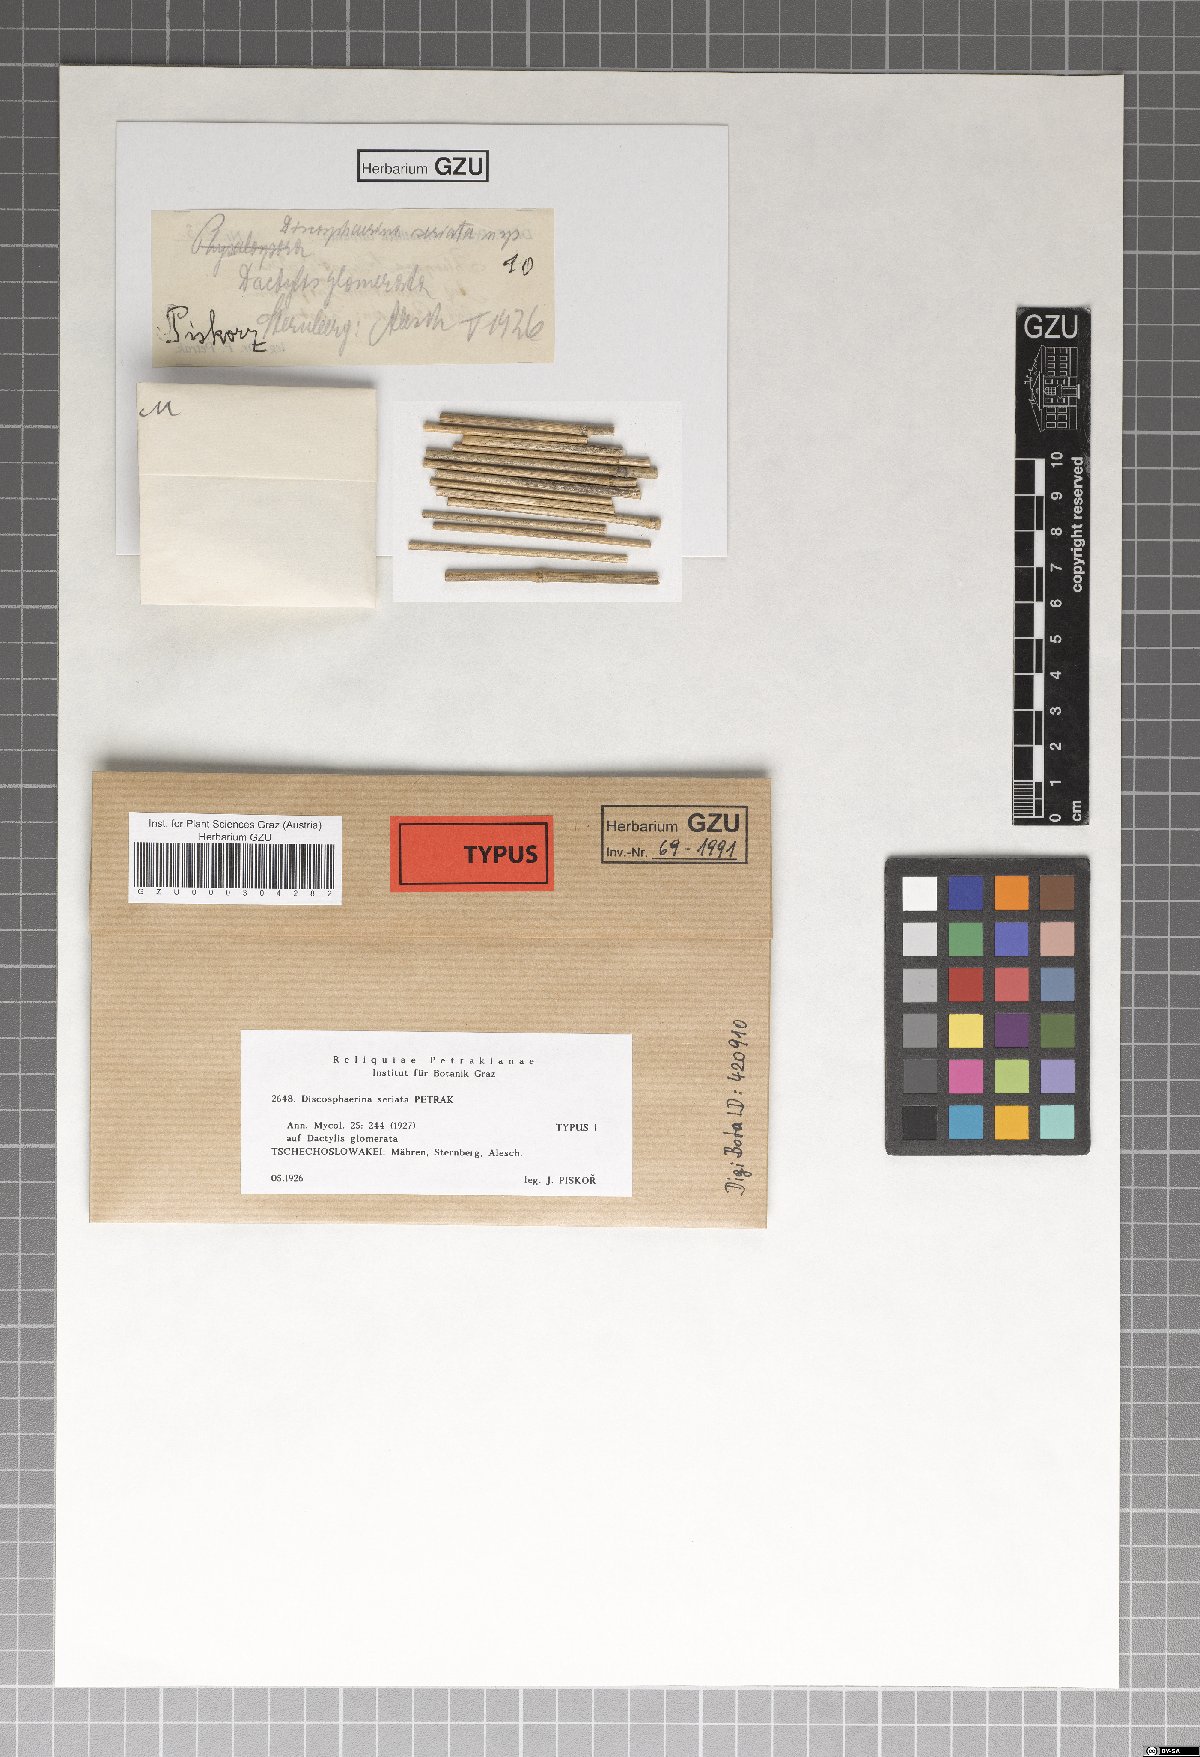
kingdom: Fungi
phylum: Ascomycota
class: Sordariomycetes
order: Xylariales
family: Hyponectriaceae
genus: Discosphaerina
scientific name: Discosphaerina seriata
